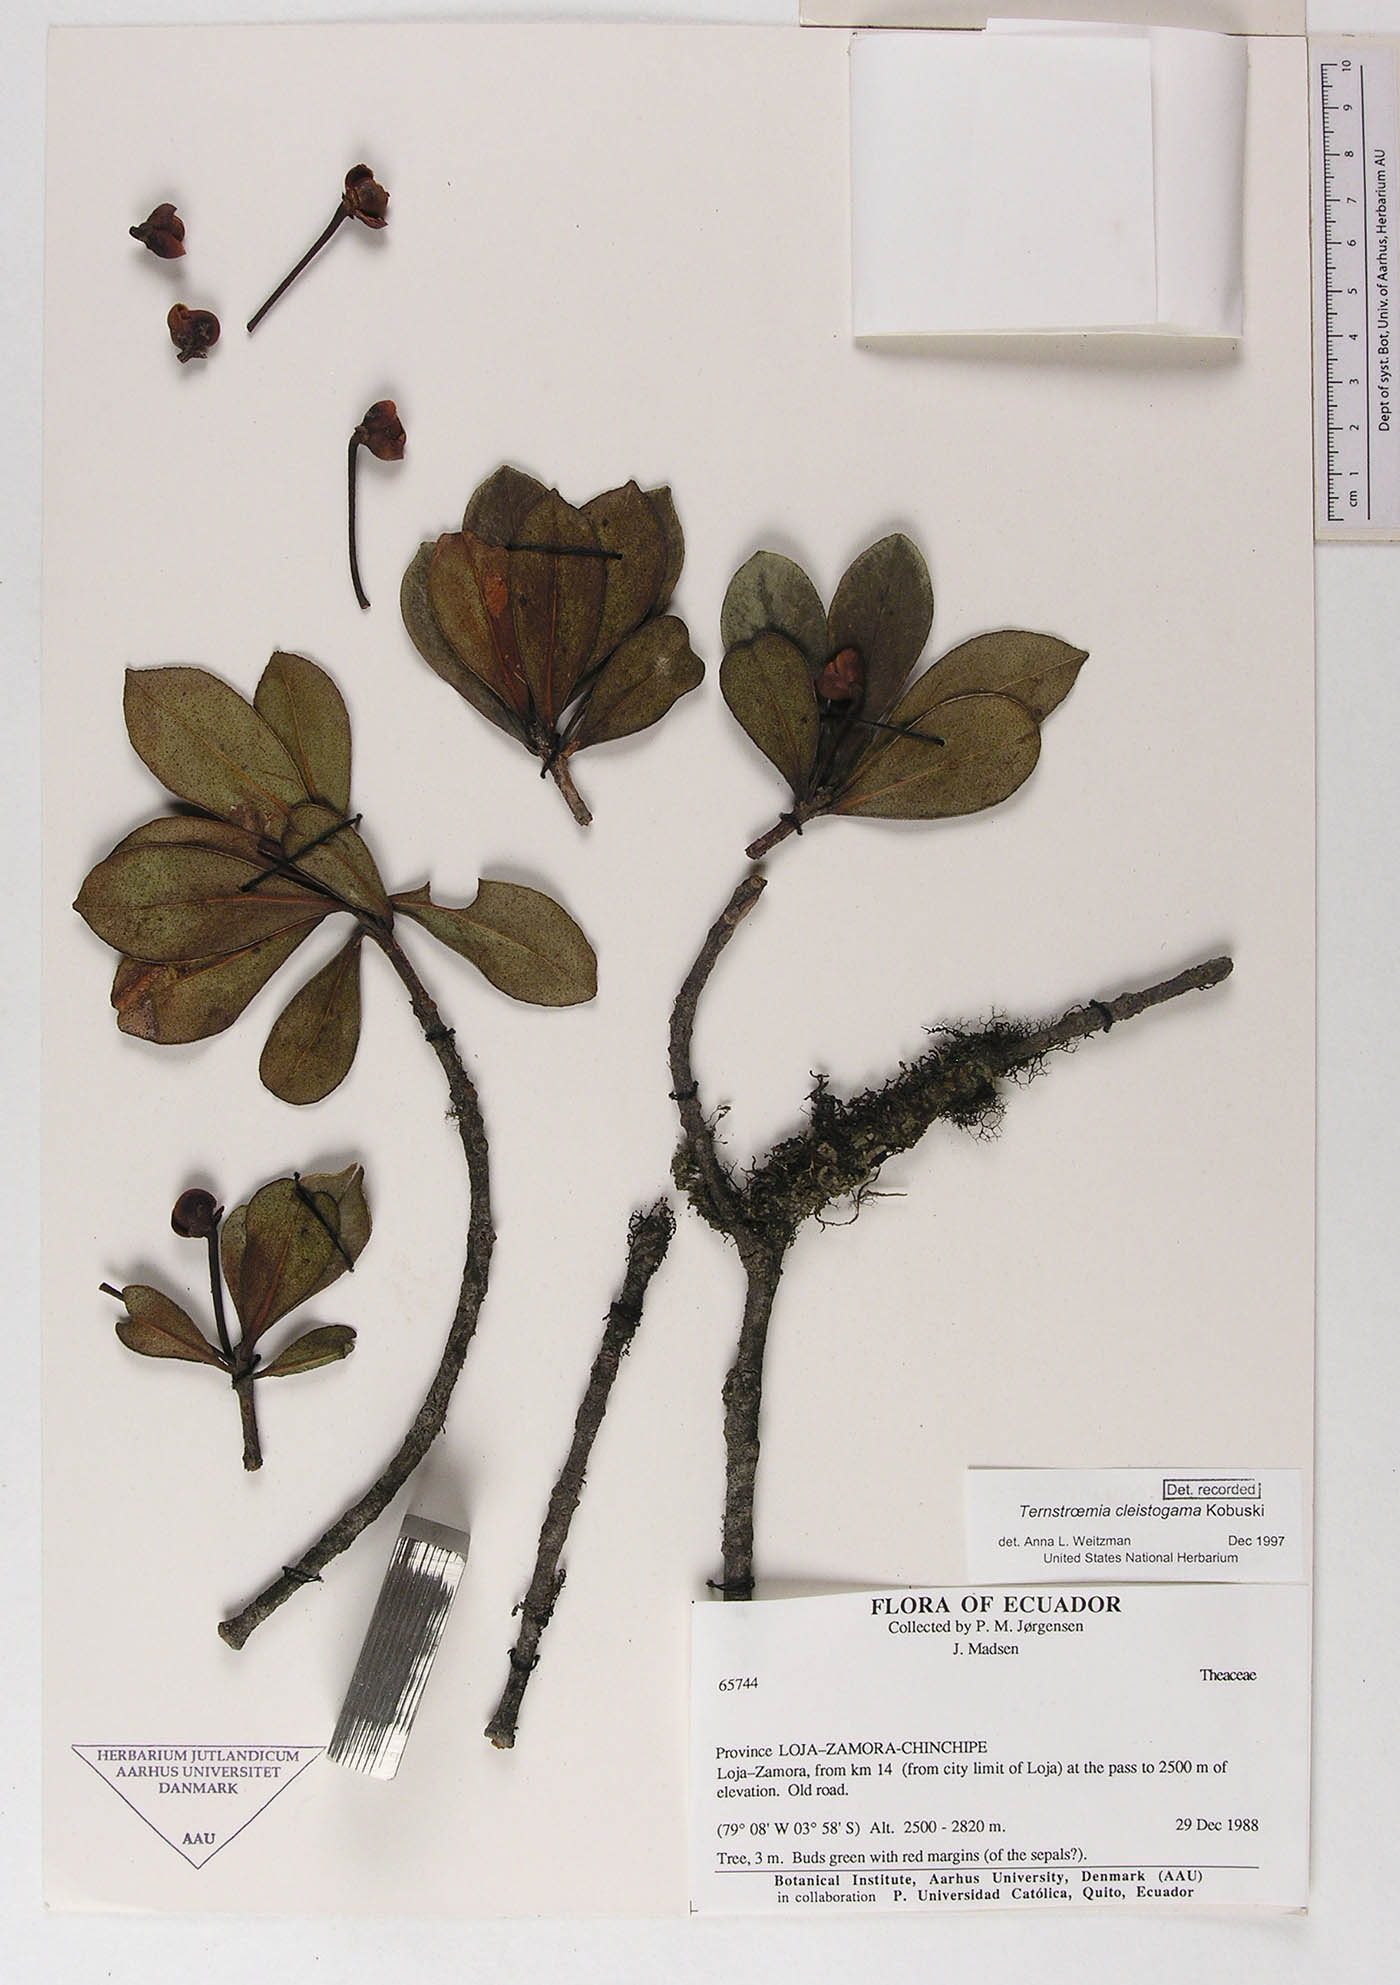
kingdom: Plantae
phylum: Tracheophyta
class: Magnoliopsida
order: Ericales
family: Pentaphylacaceae
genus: Ternstroemia
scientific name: Ternstroemia cleistogama
